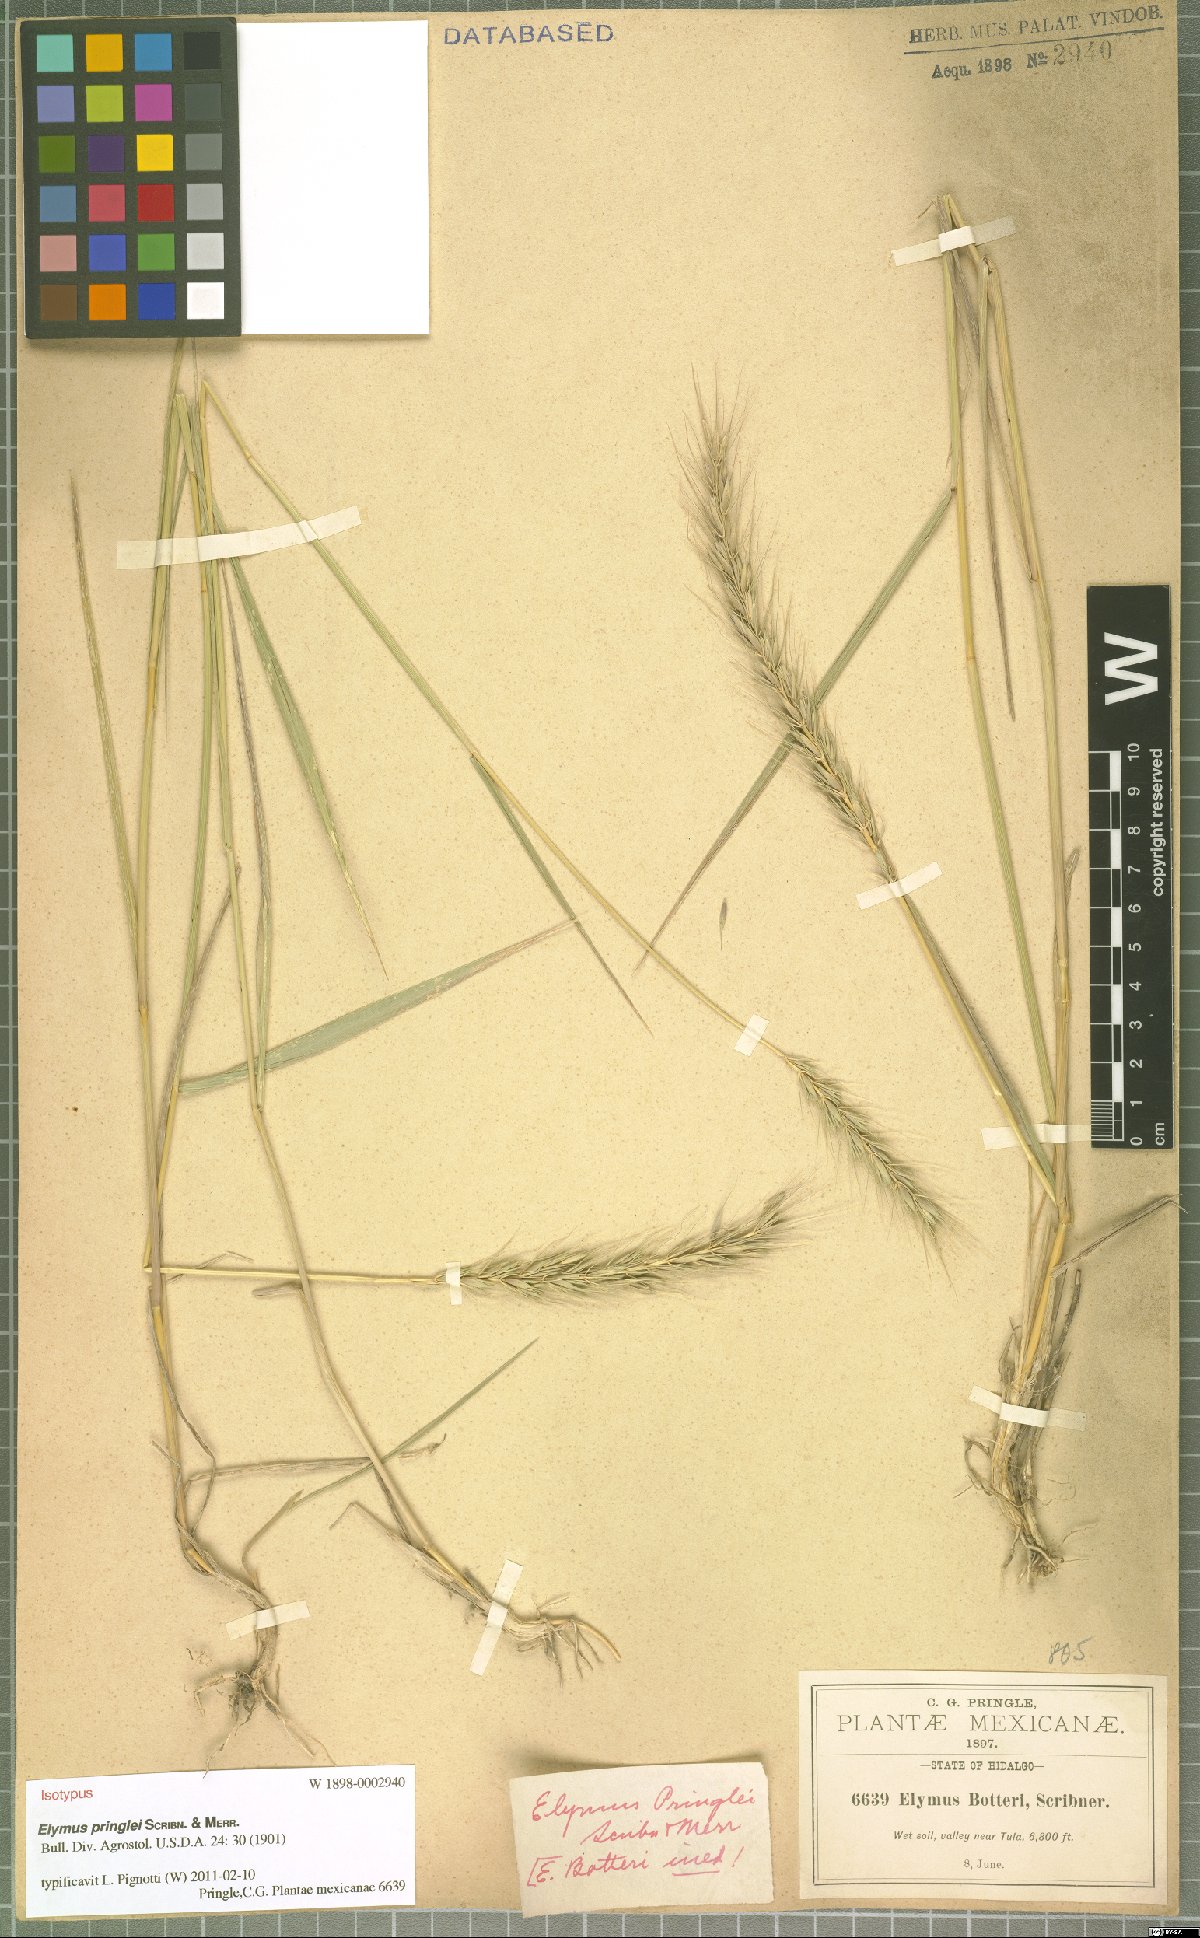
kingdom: Plantae
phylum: Tracheophyta
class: Liliopsida
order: Poales
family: Poaceae
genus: Elymus
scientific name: Elymus violaceus
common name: Arctic wheatgrass
